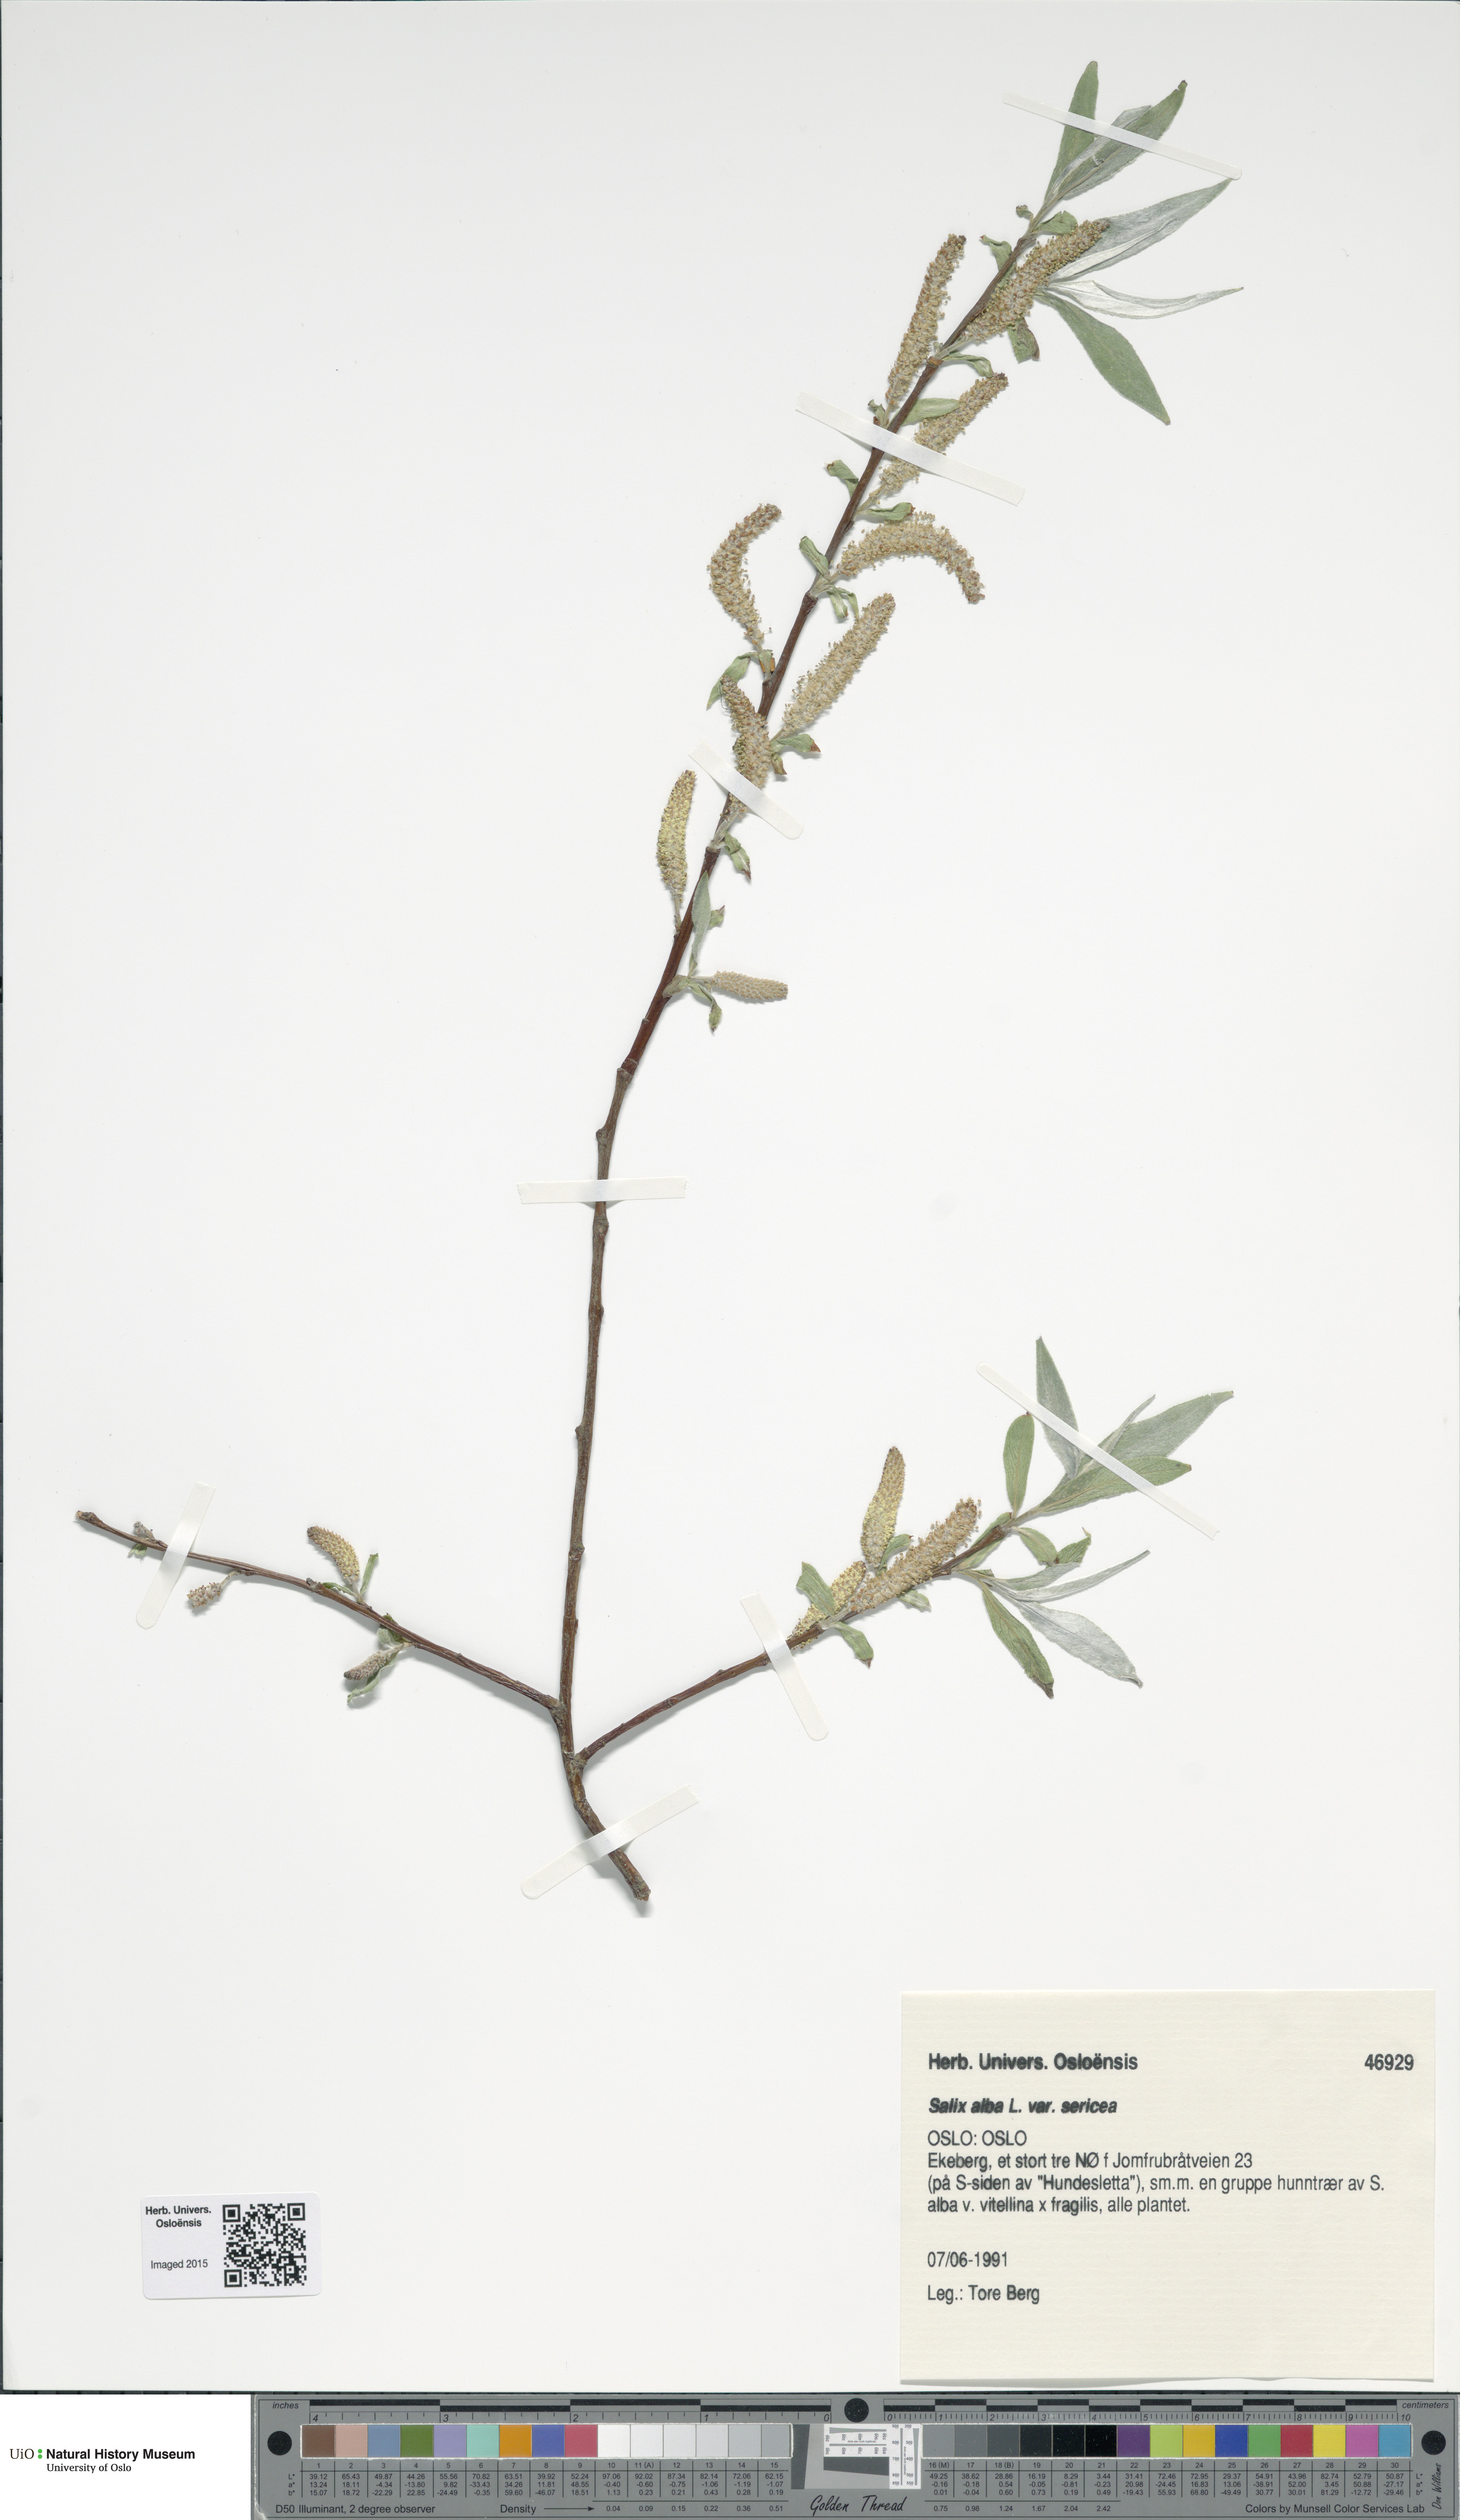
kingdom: Plantae
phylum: Tracheophyta
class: Magnoliopsida
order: Malpighiales
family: Salicaceae
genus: Salix
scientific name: Salix alba
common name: White willow
